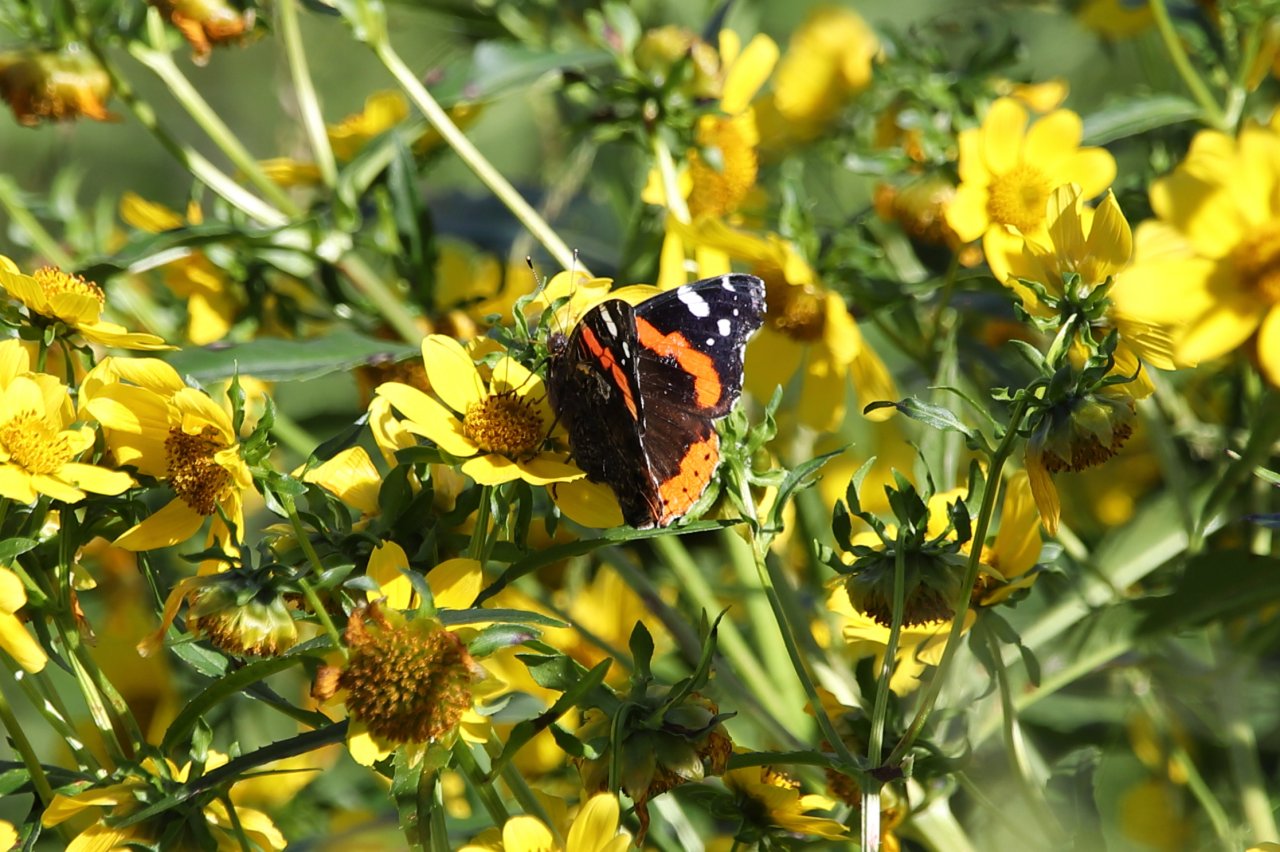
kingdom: Animalia
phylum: Arthropoda
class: Insecta
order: Lepidoptera
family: Nymphalidae
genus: Vanessa
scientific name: Vanessa atalanta
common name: Red Admiral
